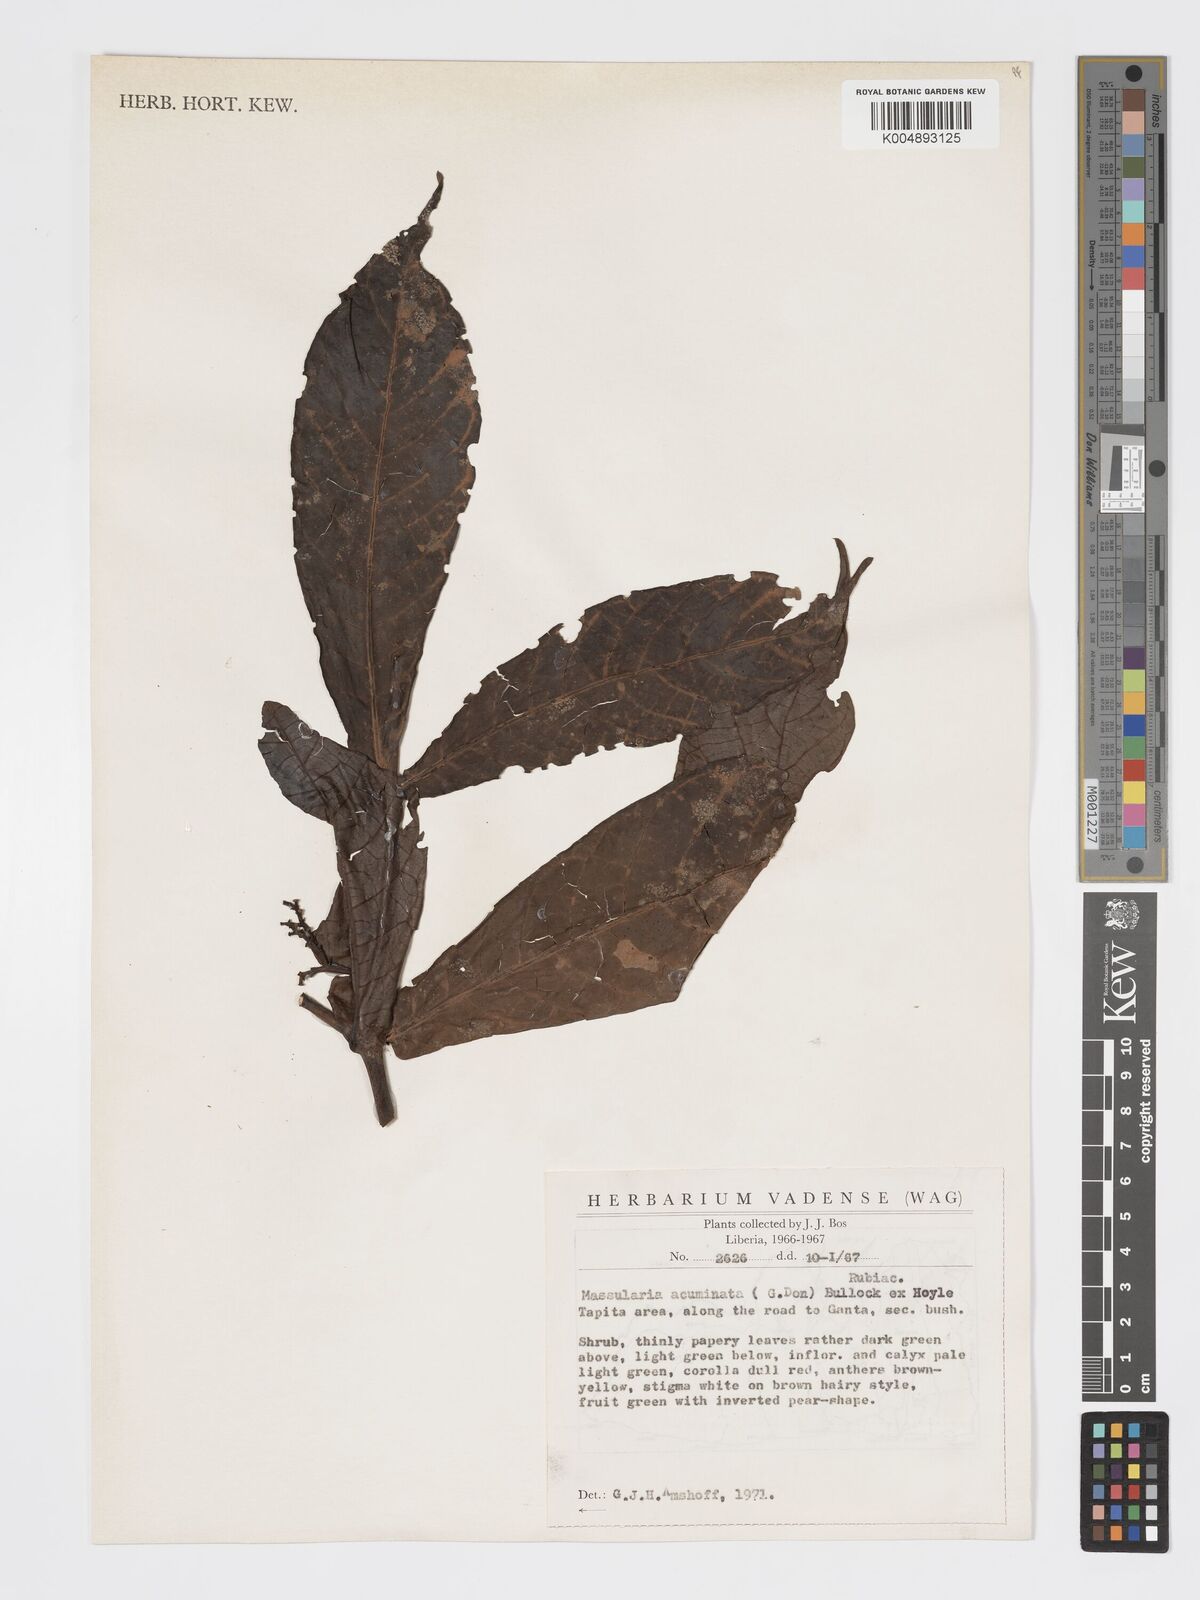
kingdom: Plantae
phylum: Tracheophyta
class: Magnoliopsida
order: Gentianales
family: Rubiaceae
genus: Massularia
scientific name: Massularia acuminata
